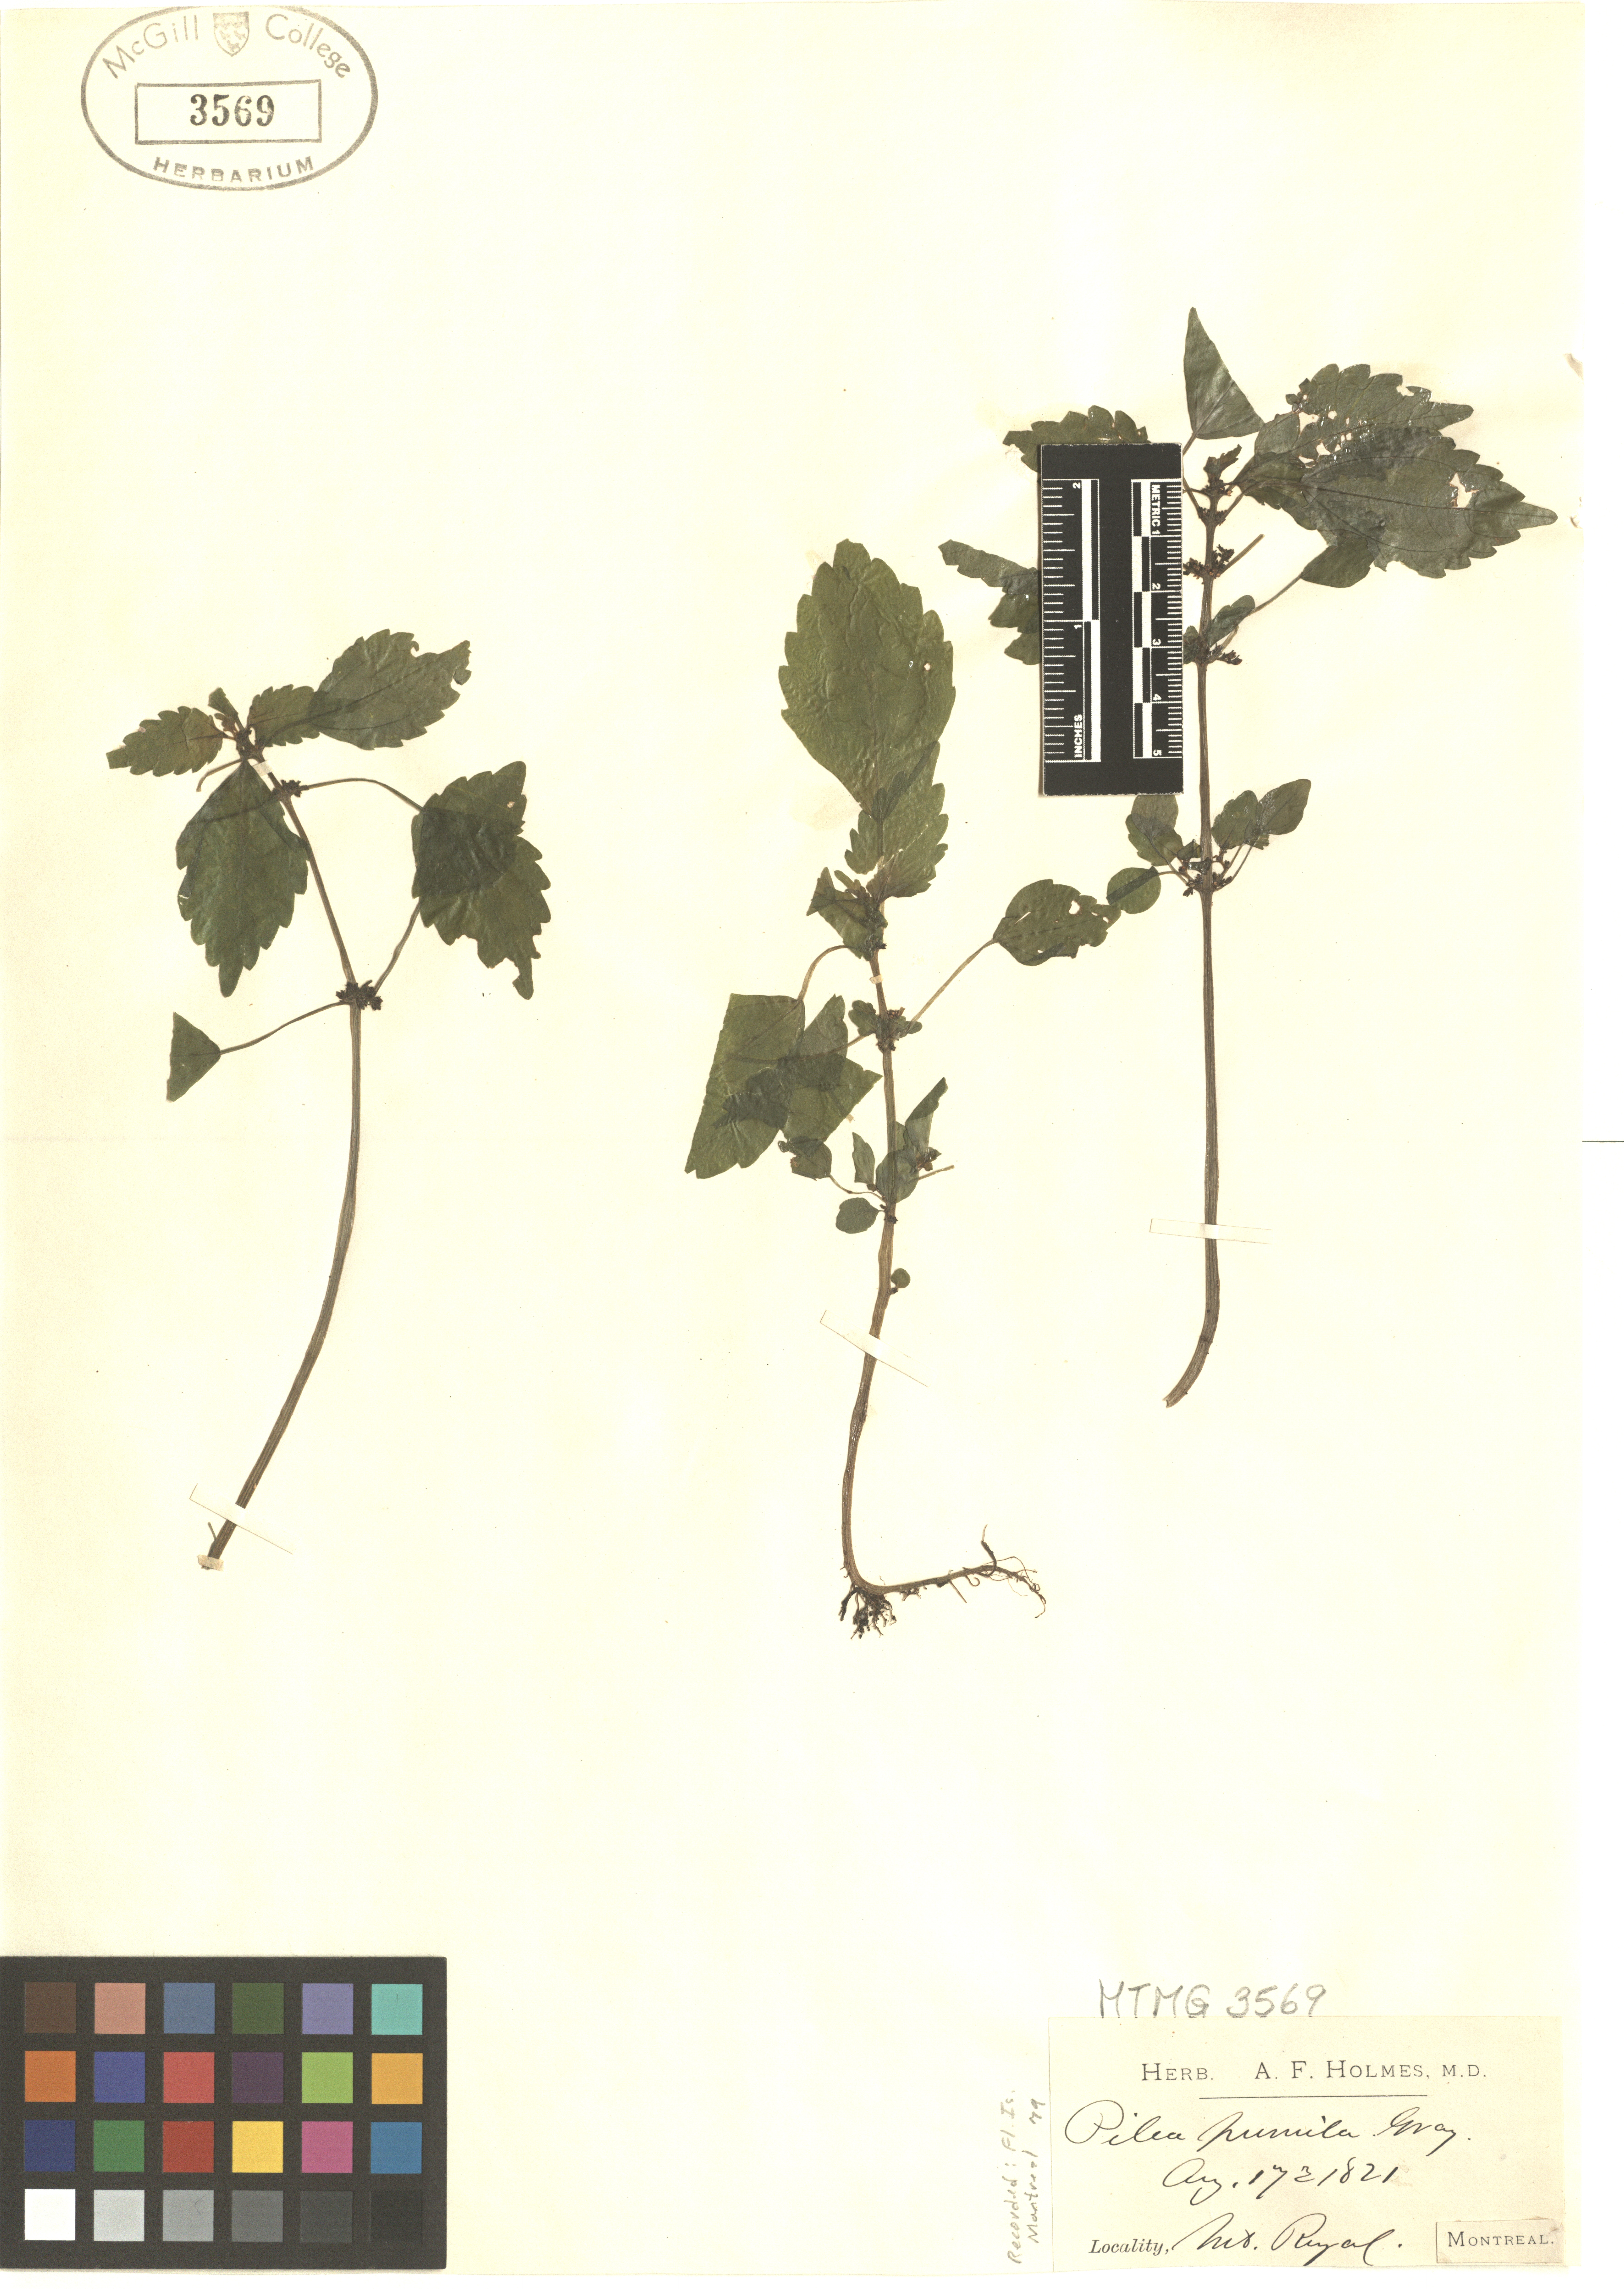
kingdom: Plantae
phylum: Tracheophyta
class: Magnoliopsida
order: Rosales
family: Urticaceae
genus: Pilea
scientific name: Pilea pumila
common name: Clearweed
